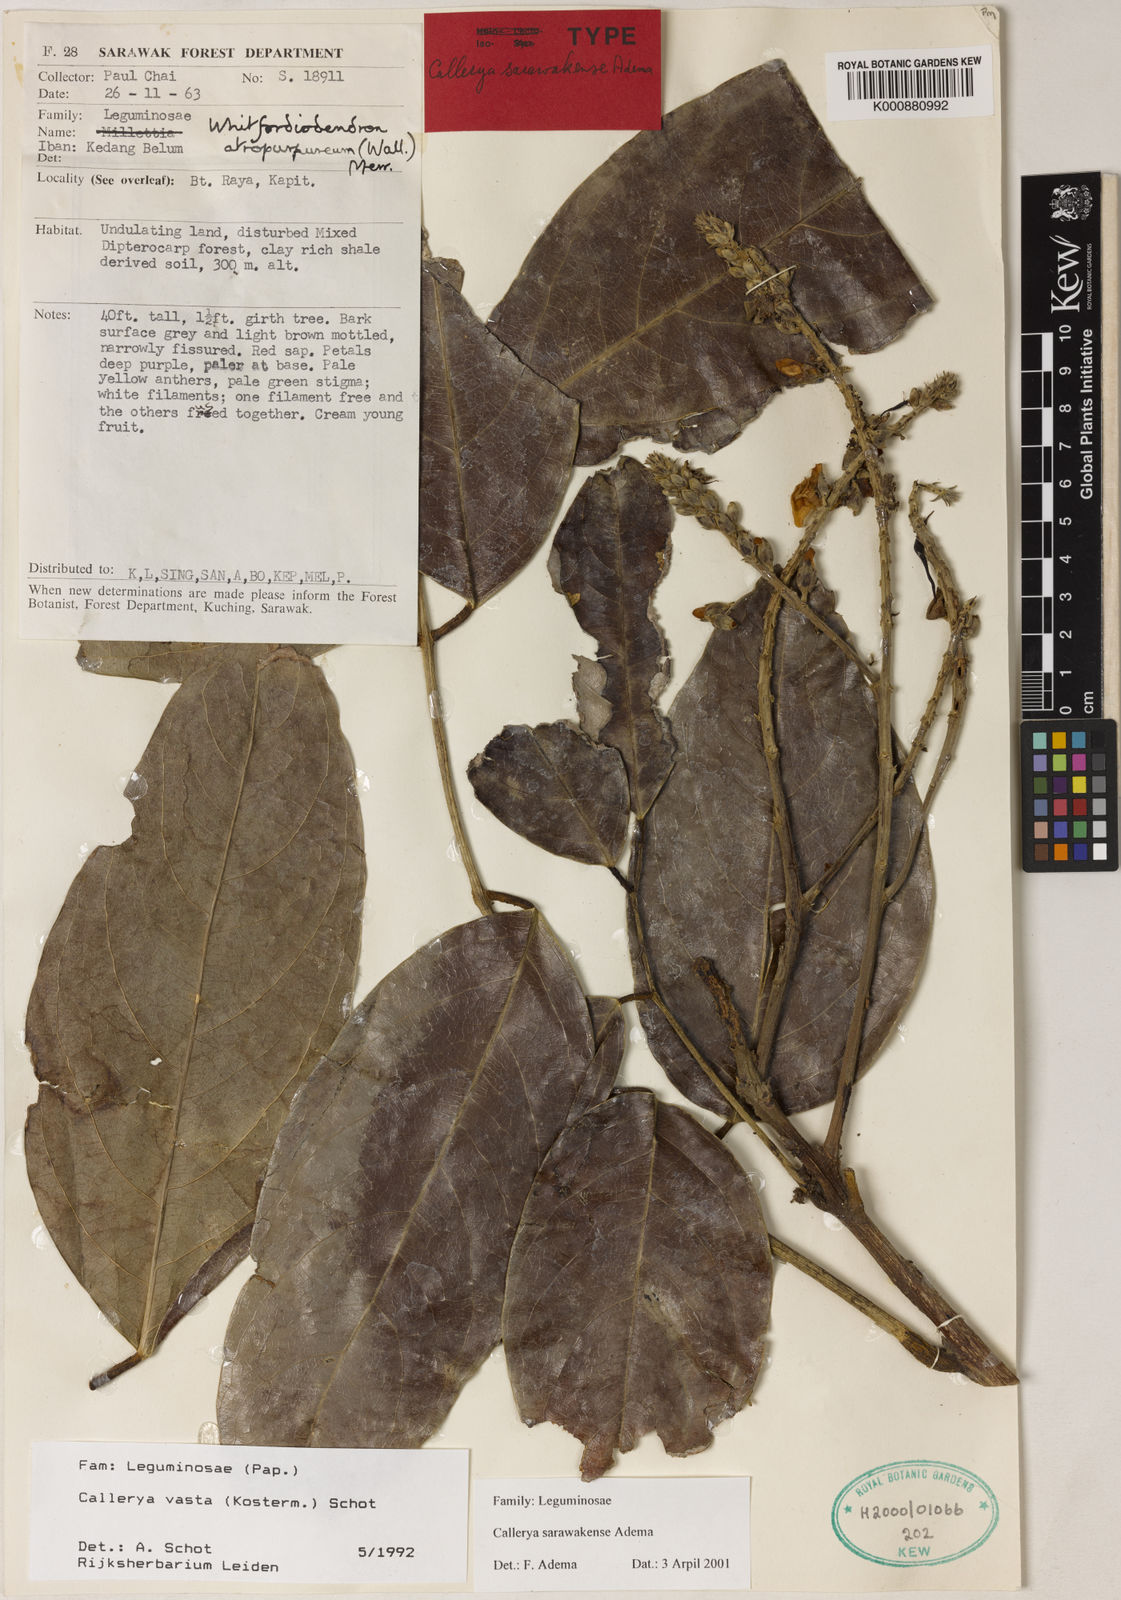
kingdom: Plantae
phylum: Tracheophyta
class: Magnoliopsida
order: Fabales
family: Fabaceae
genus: Callerya
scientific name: Callerya
